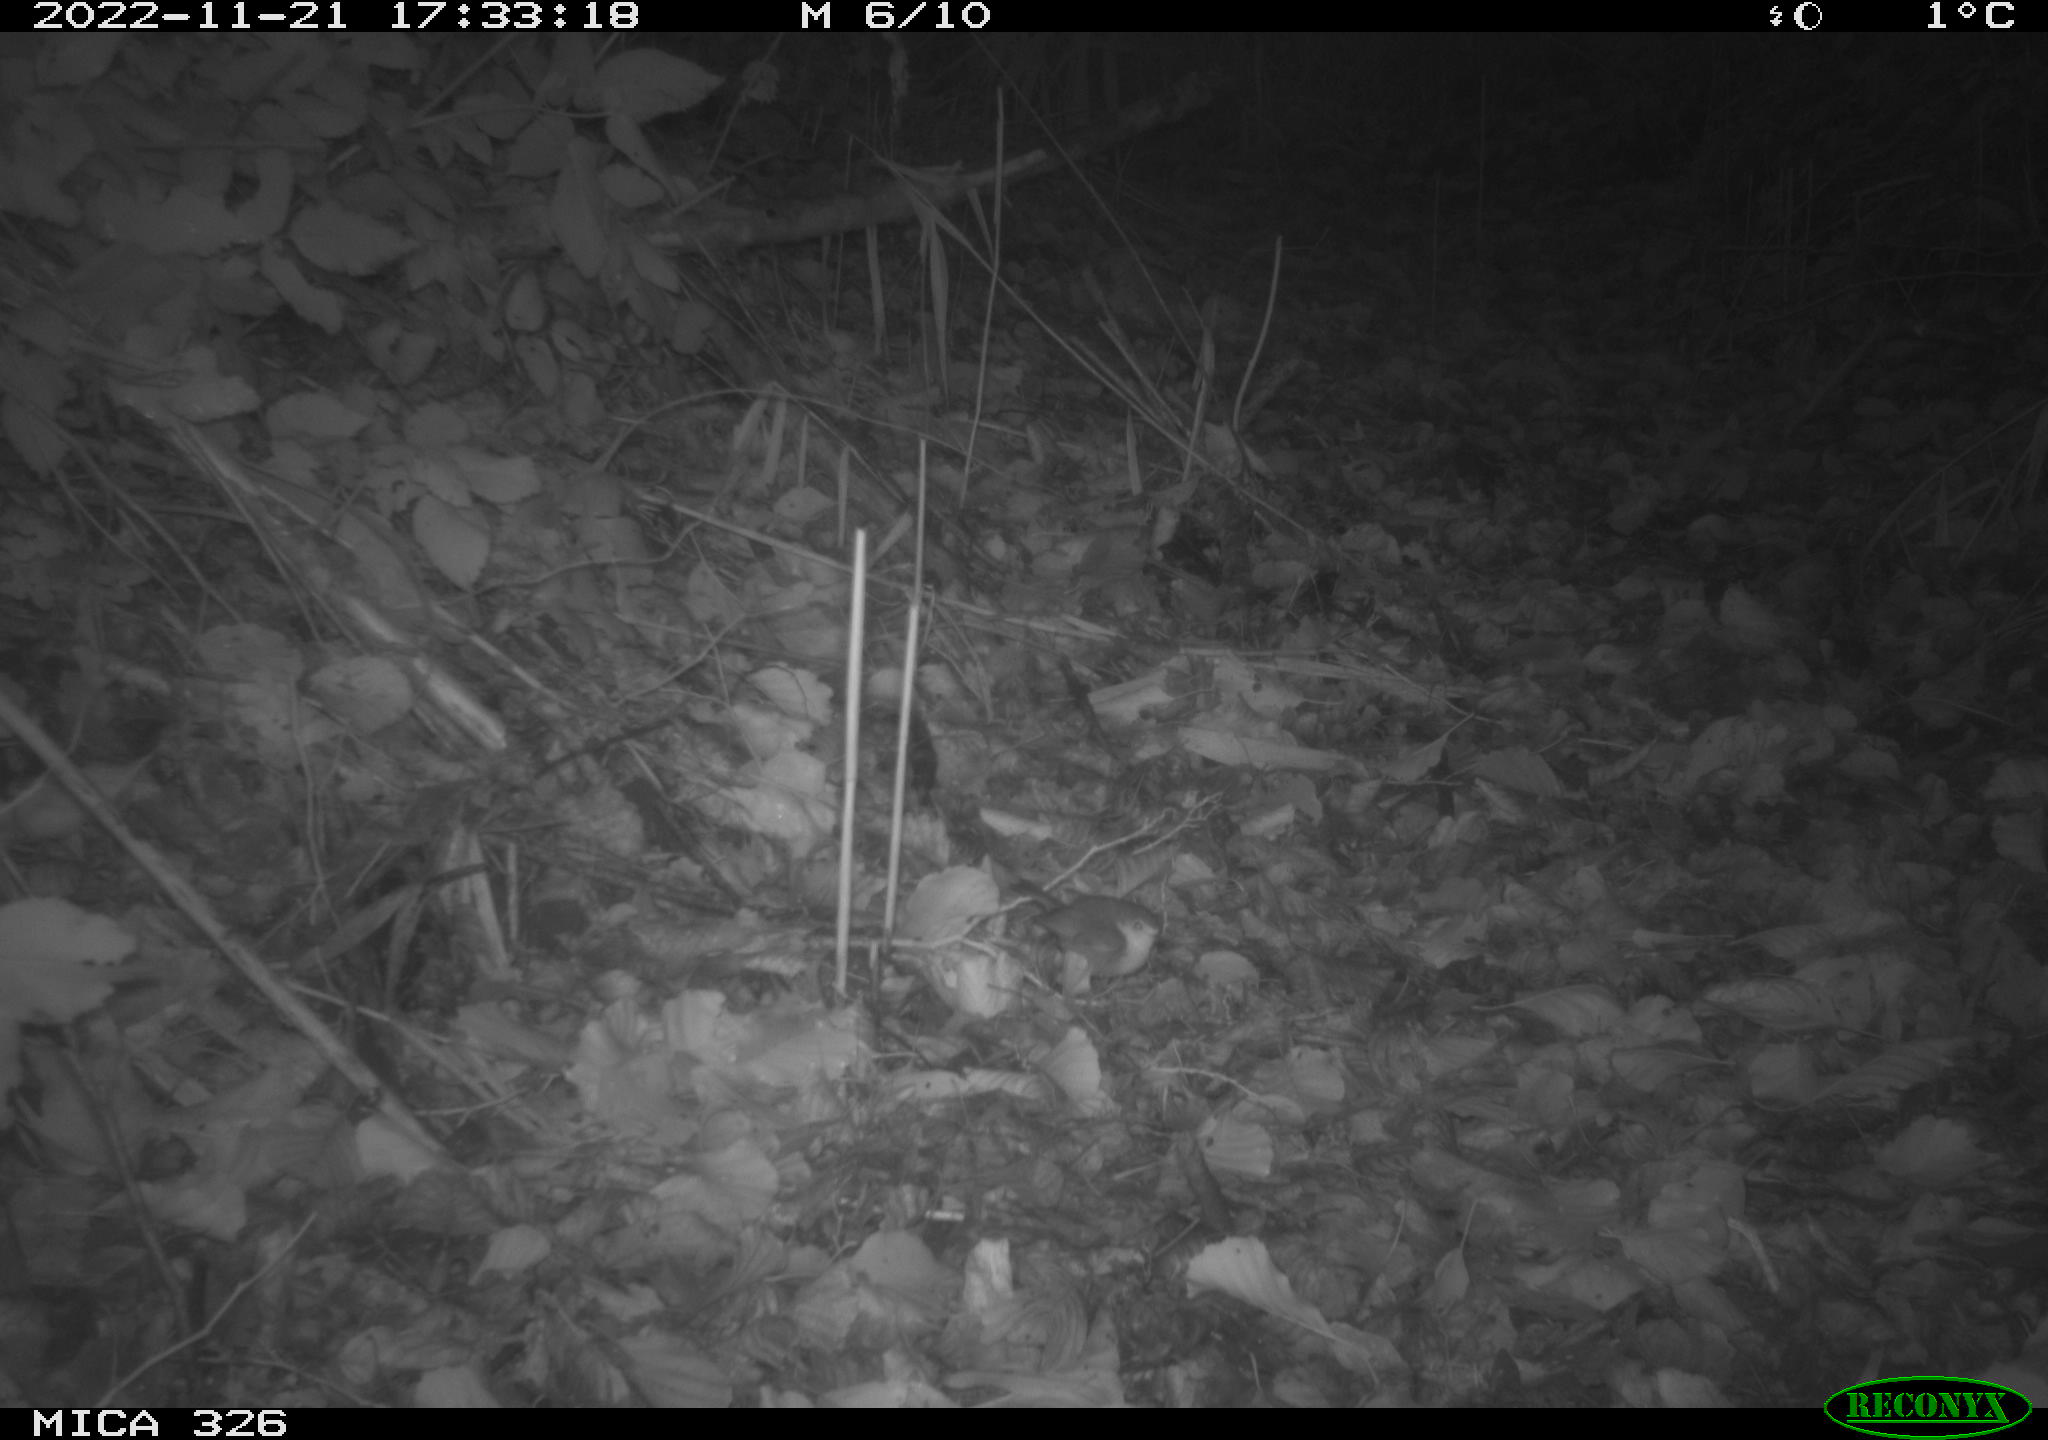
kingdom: Animalia
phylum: Chordata
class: Aves
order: Passeriformes
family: Muscicapidae
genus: Erithacus
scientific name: Erithacus rubecula
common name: European robin
